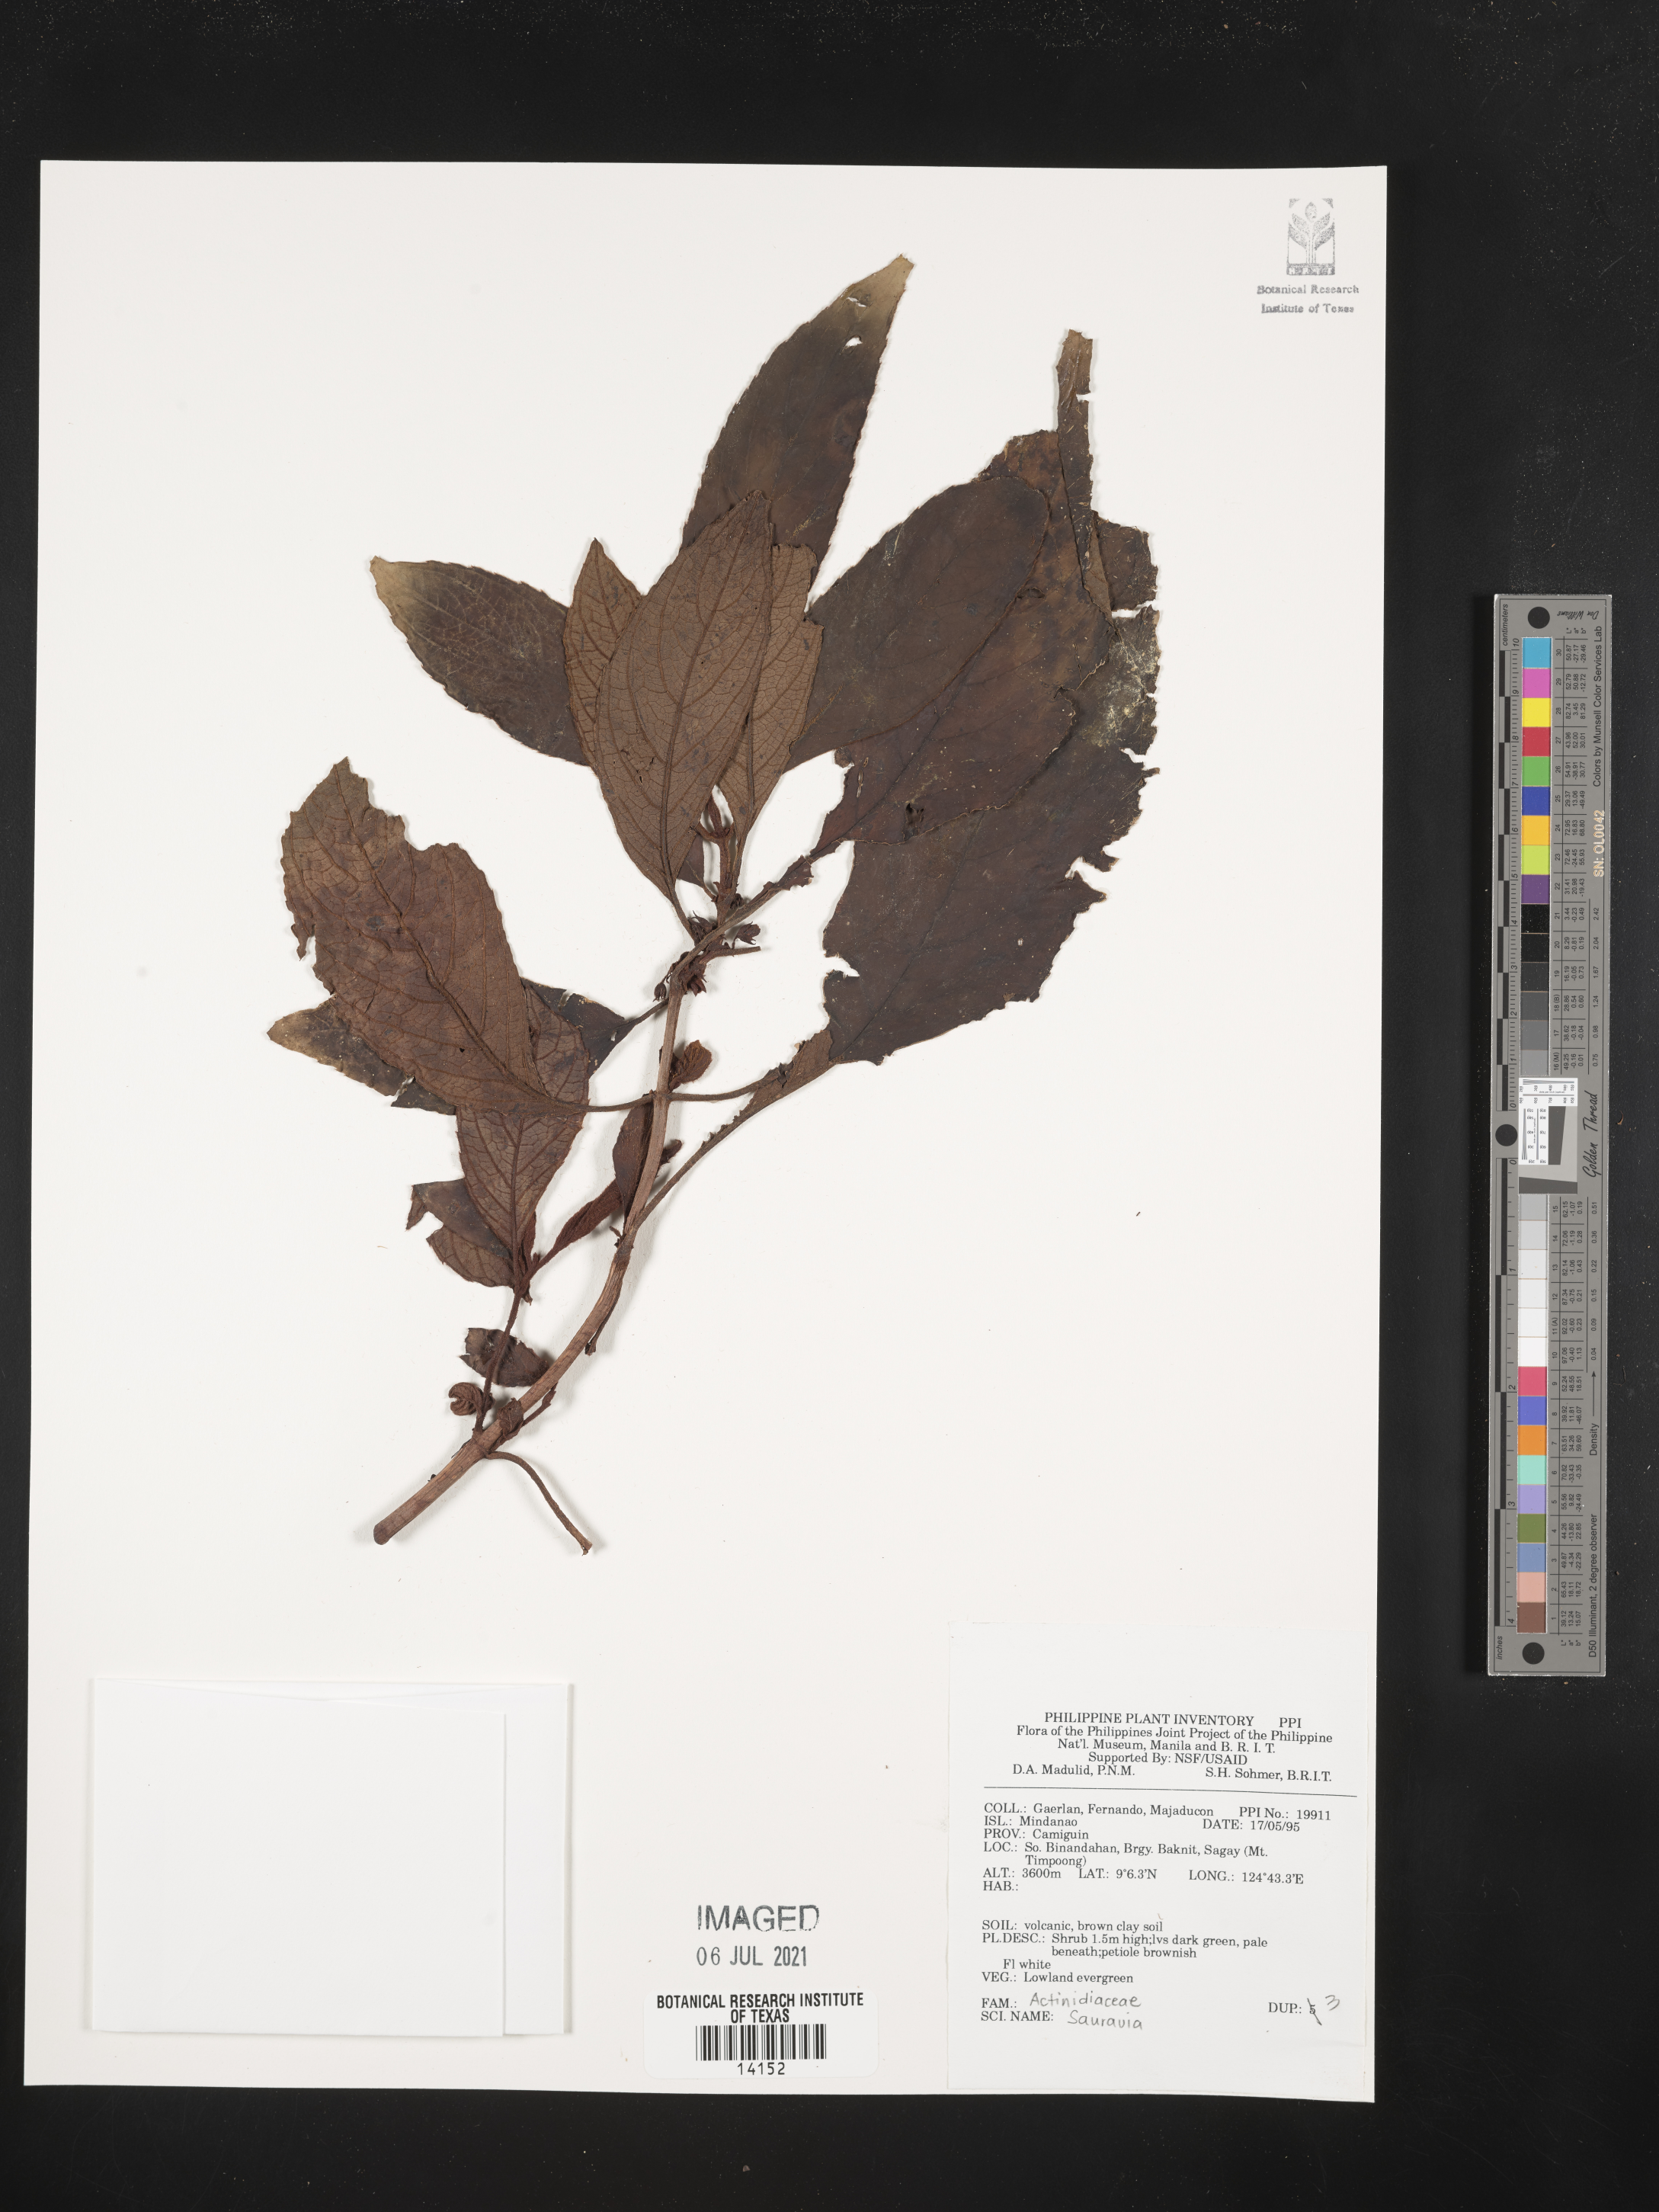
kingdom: Plantae
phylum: Tracheophyta
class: Magnoliopsida
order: Ericales
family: Actinidiaceae
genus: Saurauia
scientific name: Saurauia
